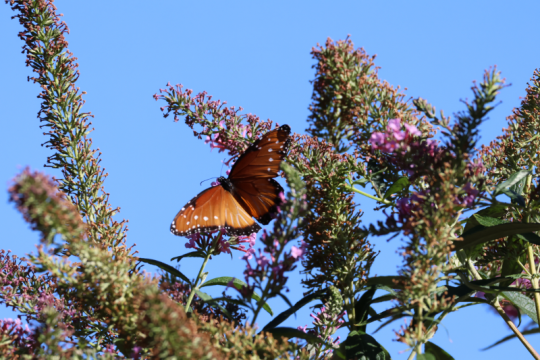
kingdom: Animalia
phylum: Arthropoda
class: Insecta
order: Lepidoptera
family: Nymphalidae
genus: Danaus
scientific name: Danaus gilippus
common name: Queen
